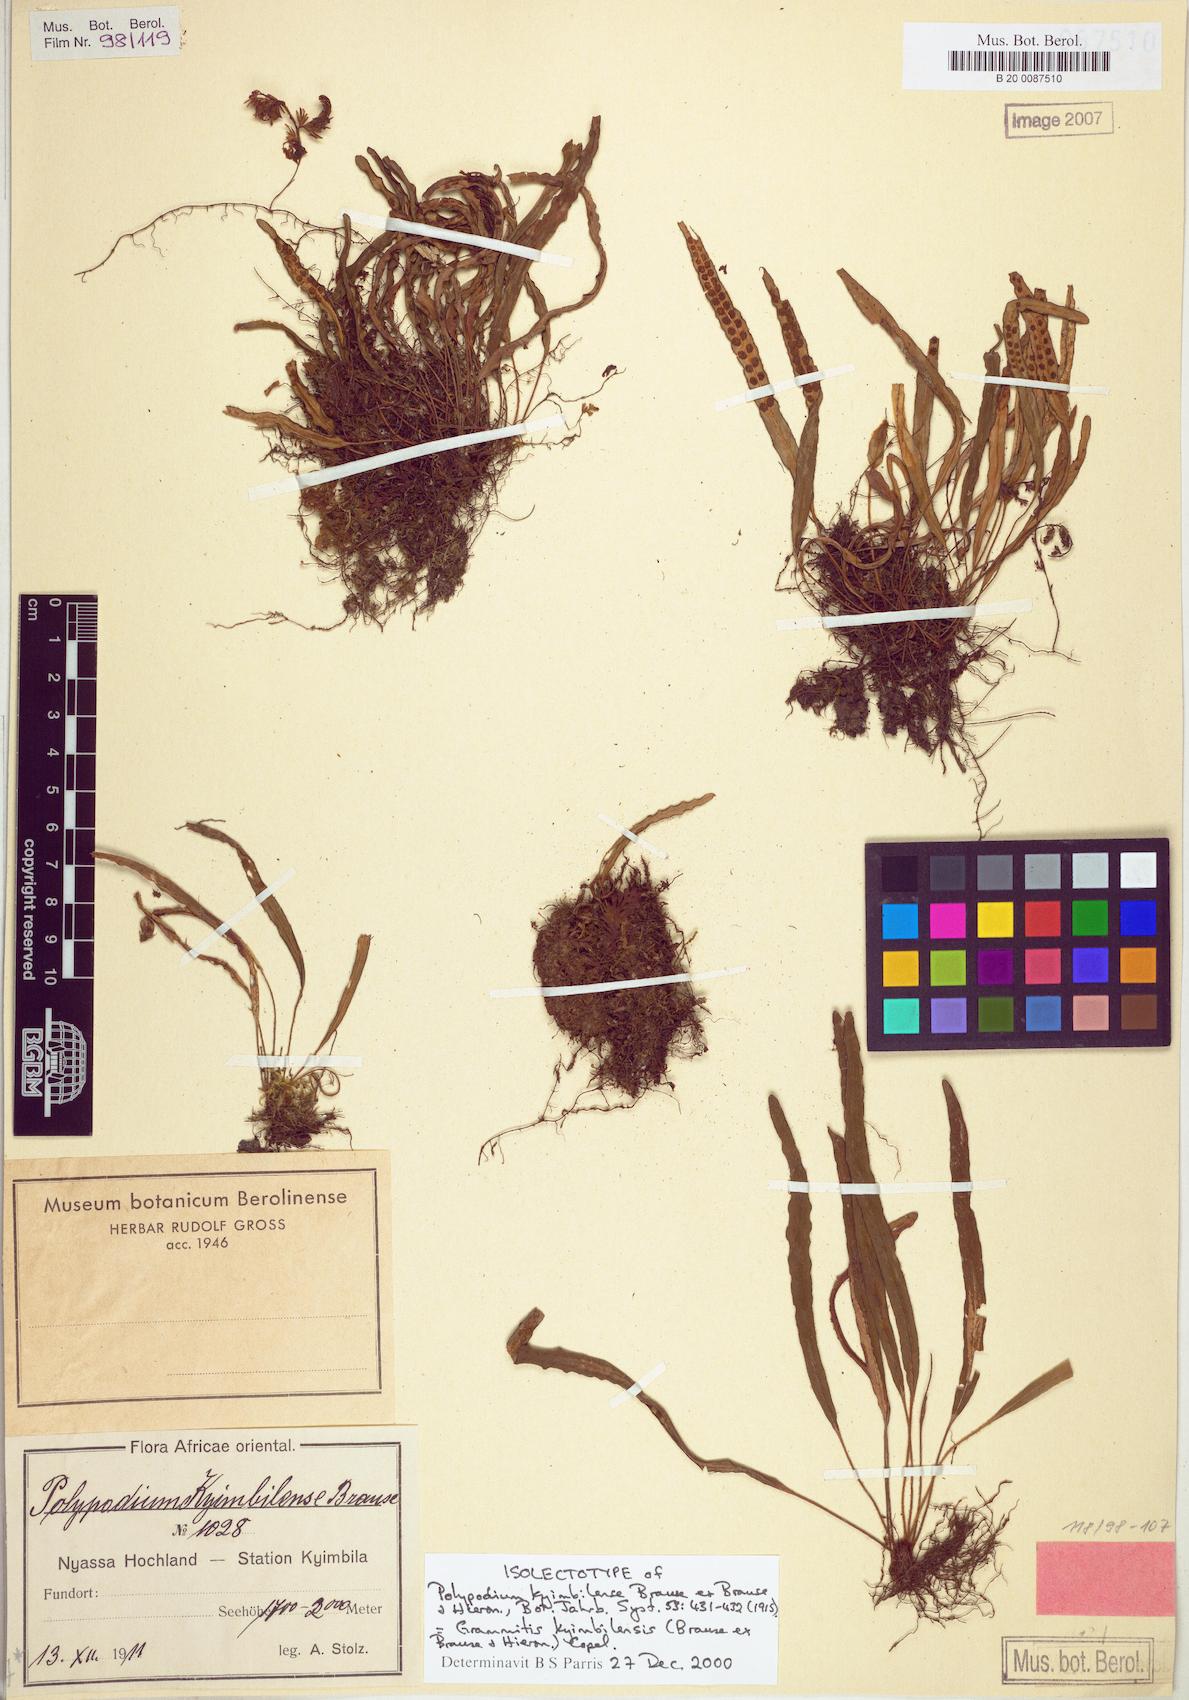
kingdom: Plantae
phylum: Tracheophyta
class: Polypodiopsida
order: Polypodiales
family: Polypodiaceae
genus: Grammitis
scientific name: Grammitis kyimbilensis
